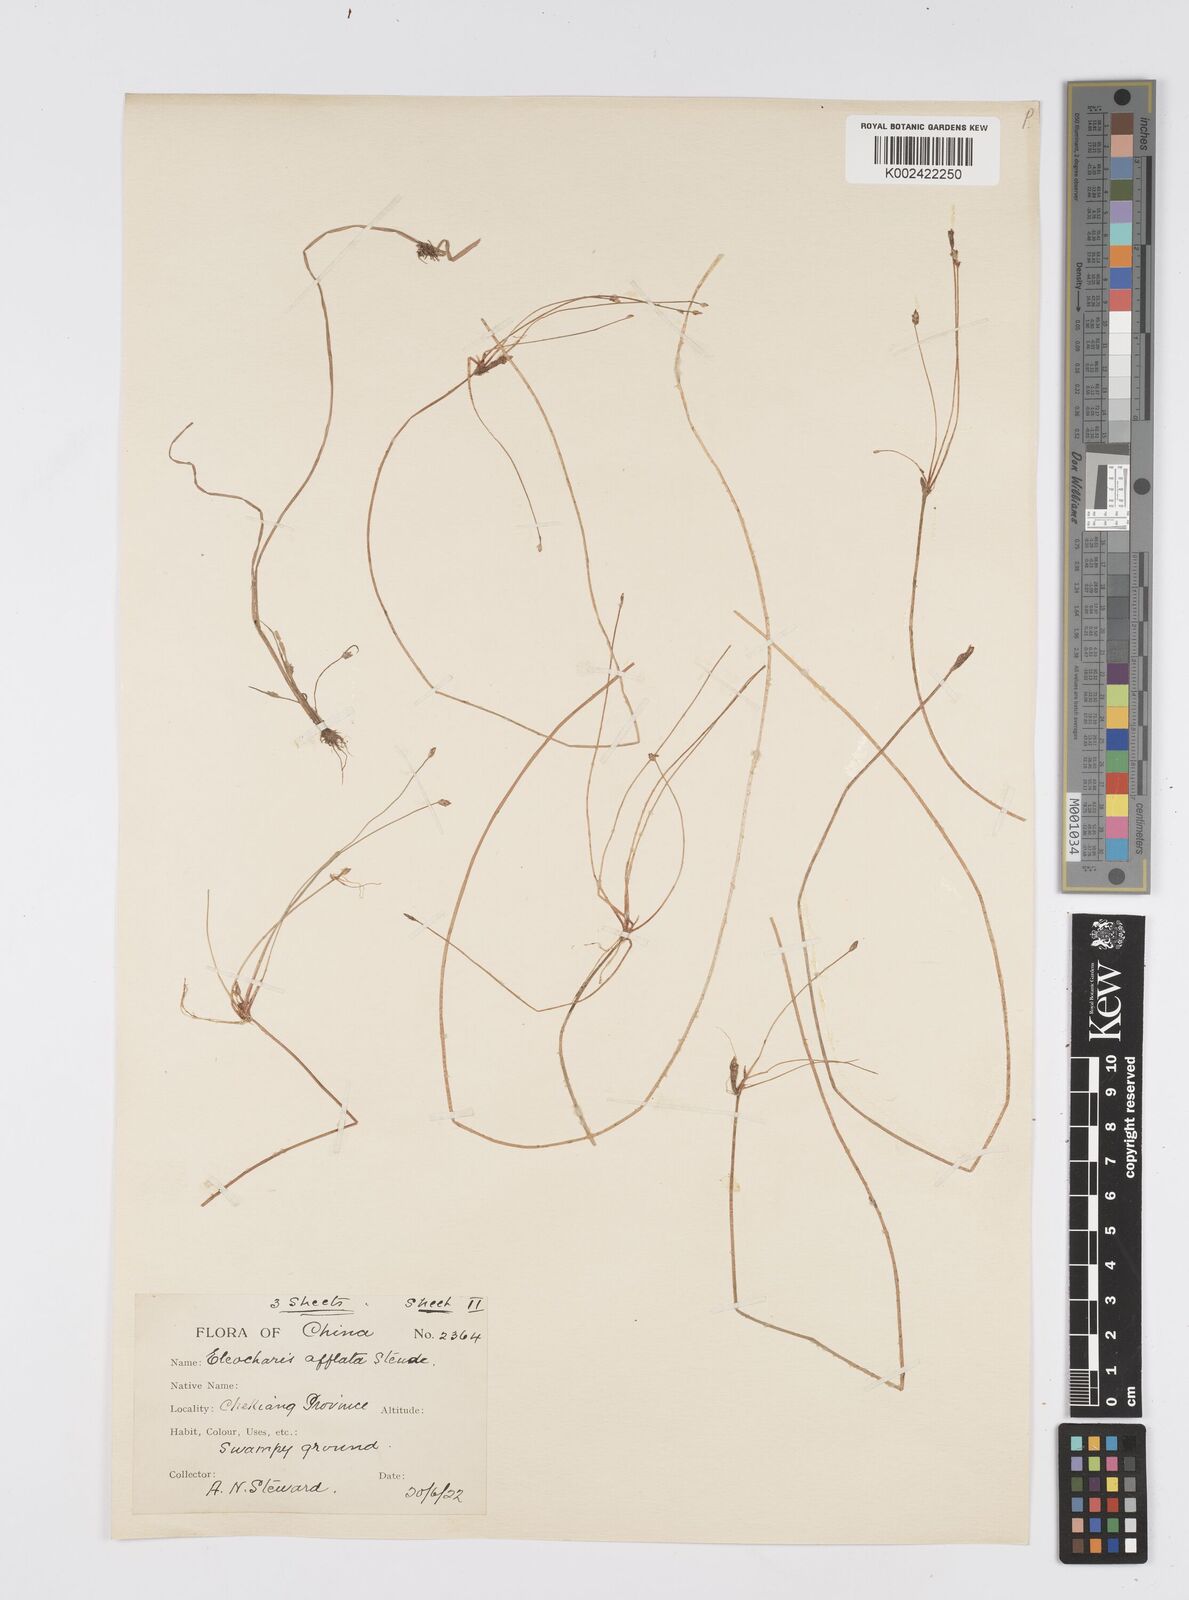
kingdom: Plantae
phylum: Tracheophyta
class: Liliopsida
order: Poales
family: Cyperaceae
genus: Eleocharis
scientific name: Eleocharis pellucida
